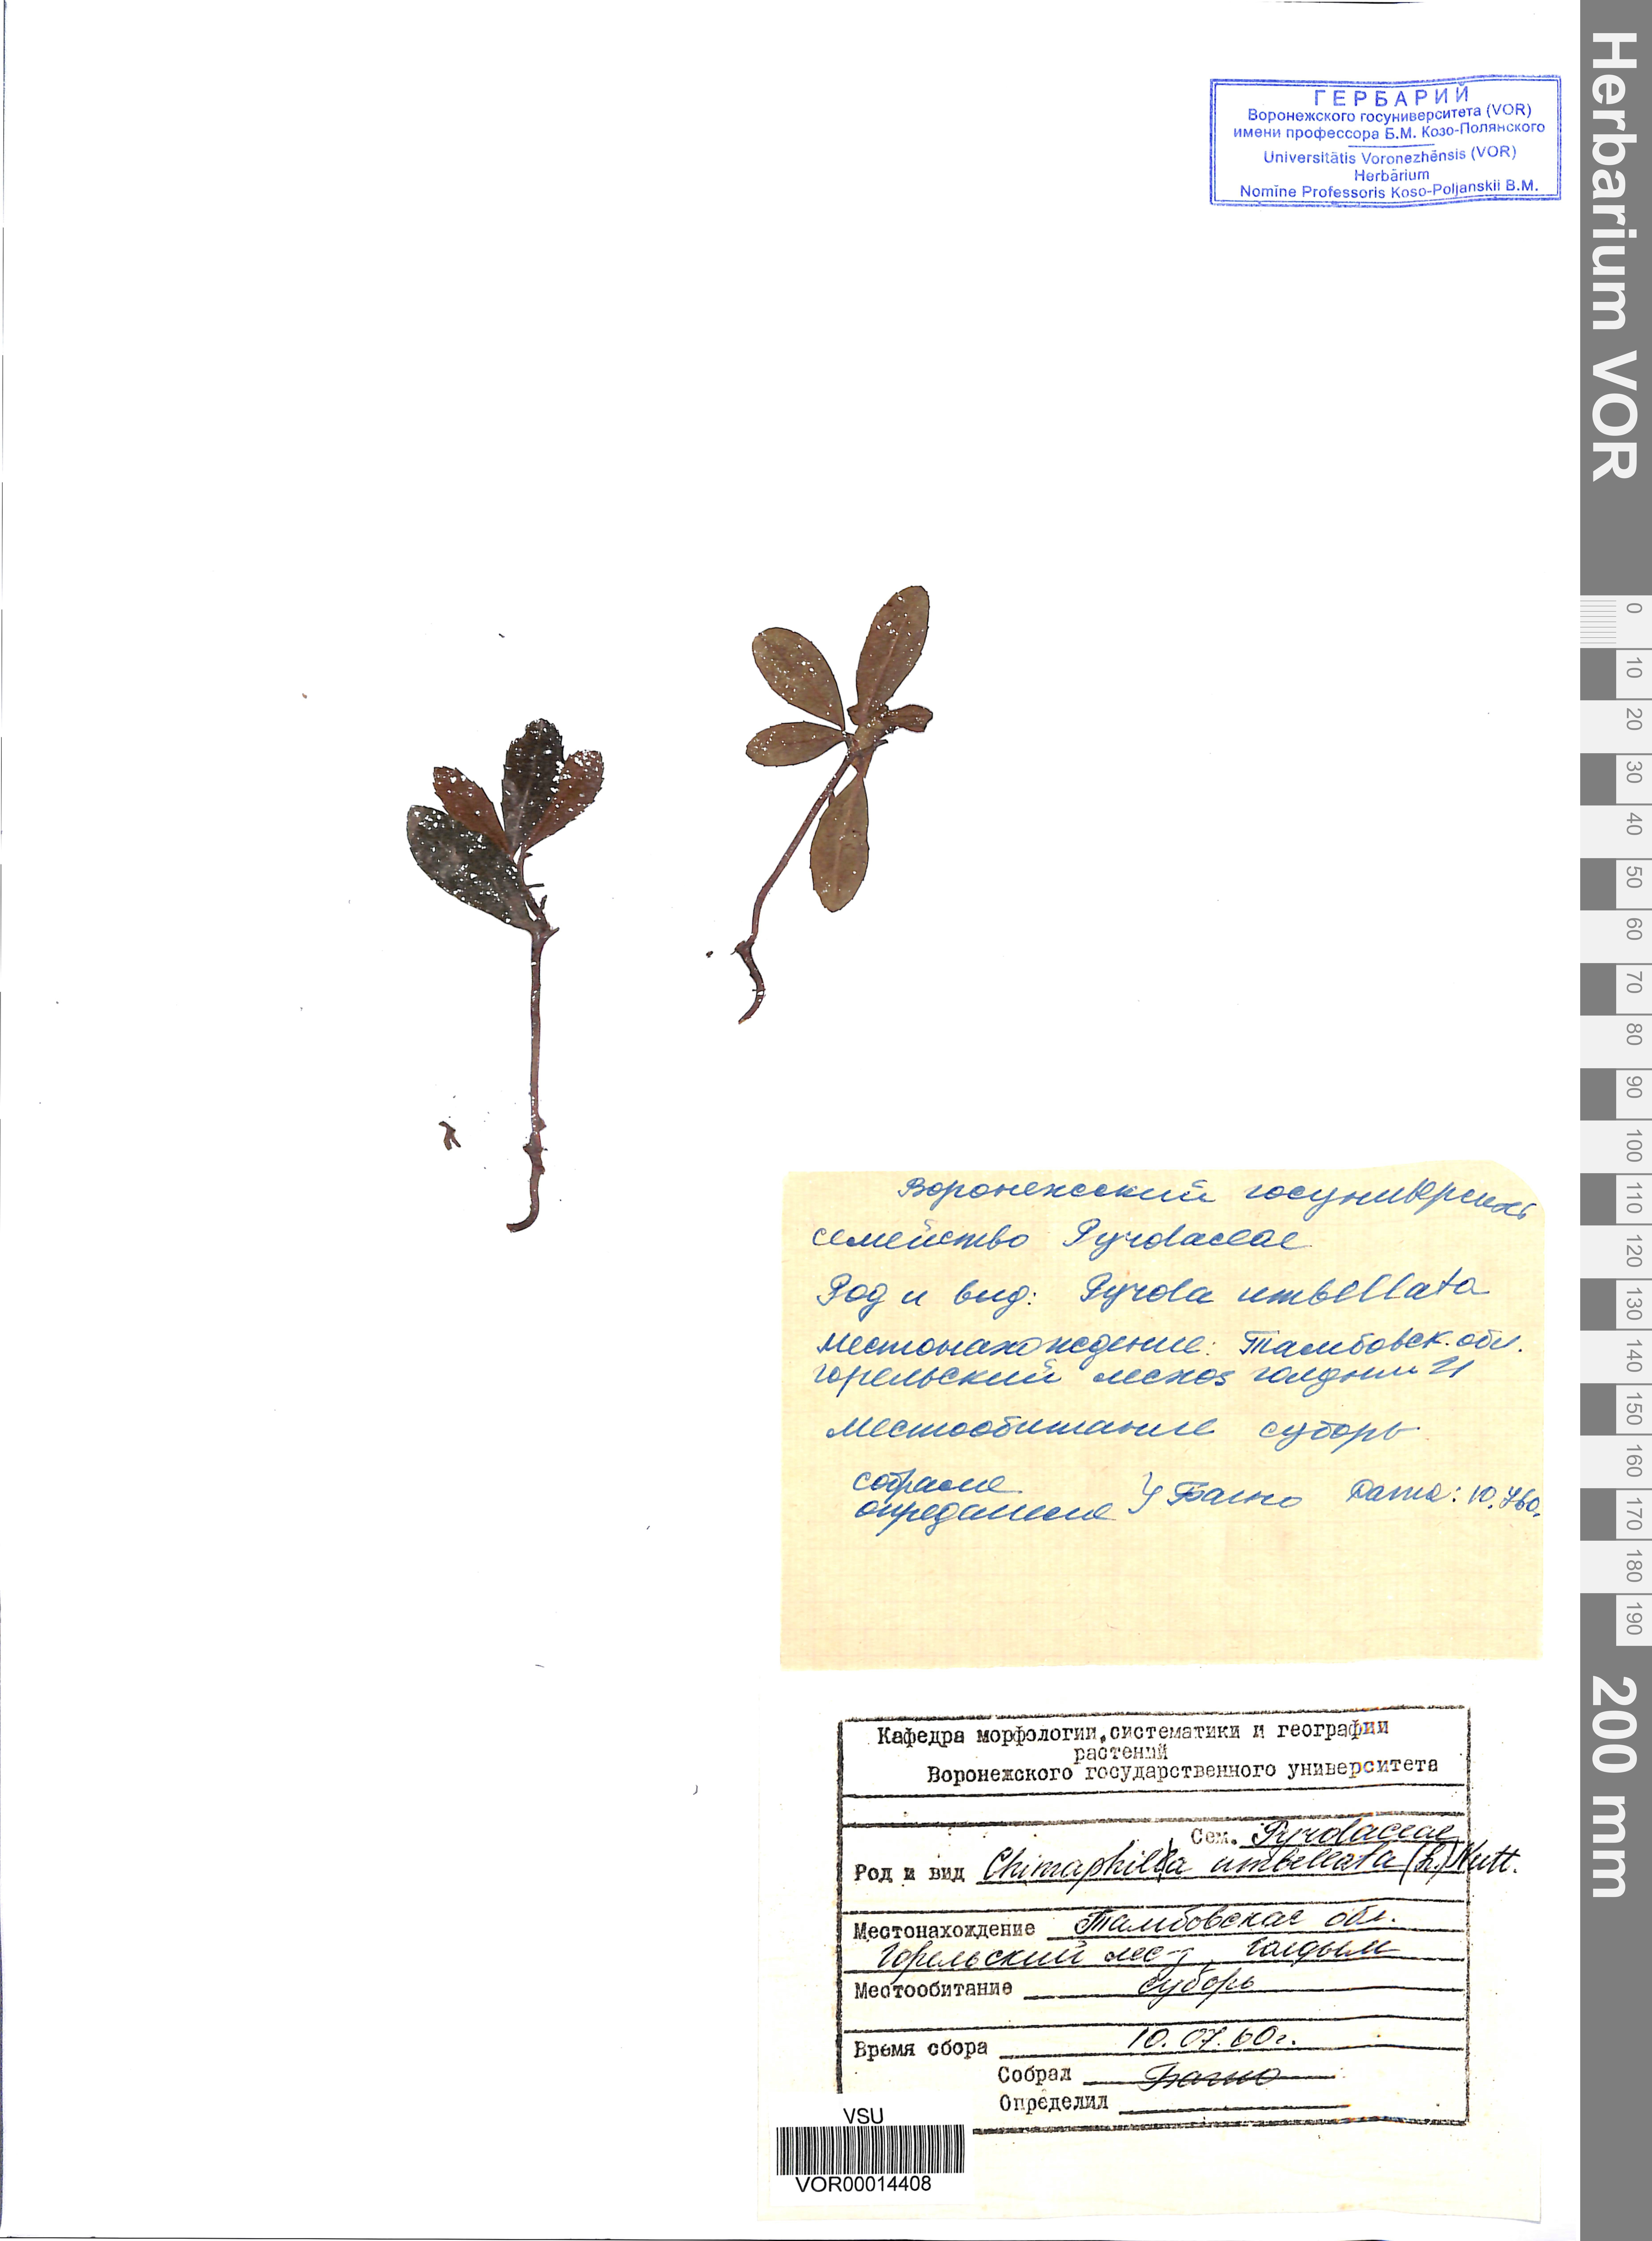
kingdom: Plantae
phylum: Tracheophyta
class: Magnoliopsida
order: Ericales
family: Ericaceae
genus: Chimaphila
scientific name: Chimaphila umbellata
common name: Pipsissewa
